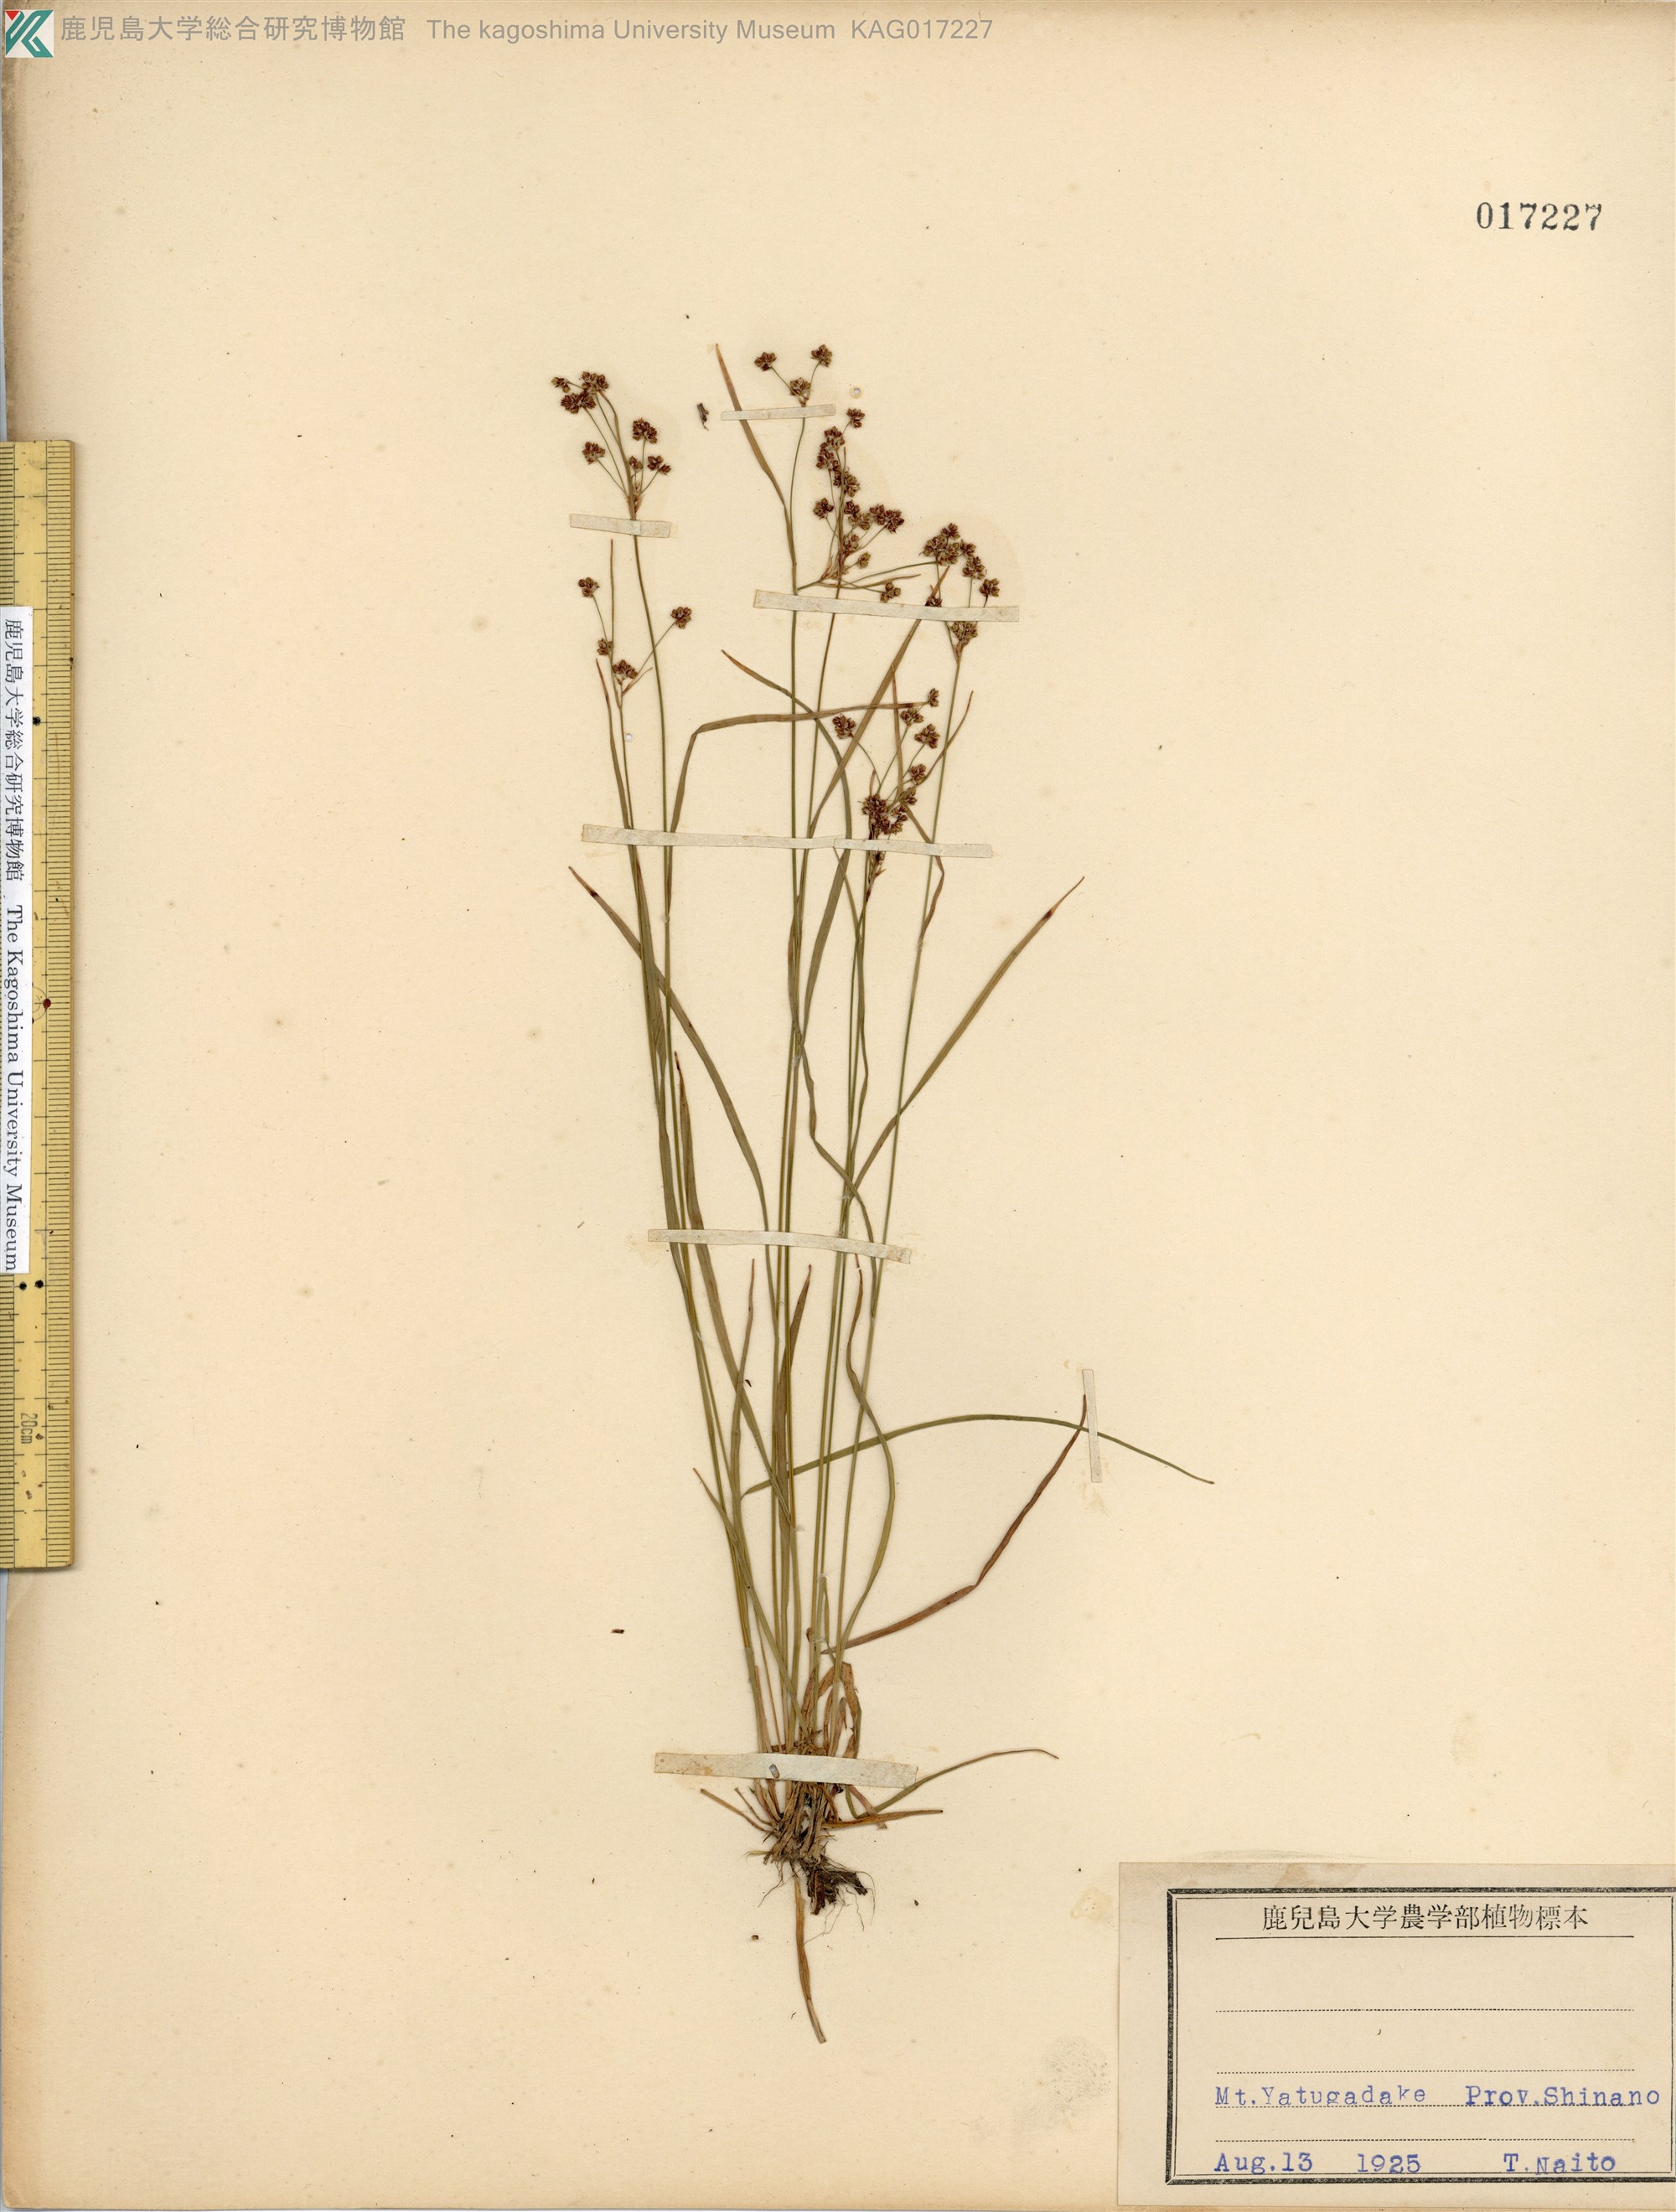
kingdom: Plantae
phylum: Tracheophyta
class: Liliopsida
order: Poales
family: Juncaceae
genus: Luzula
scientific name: Luzula oligantha
